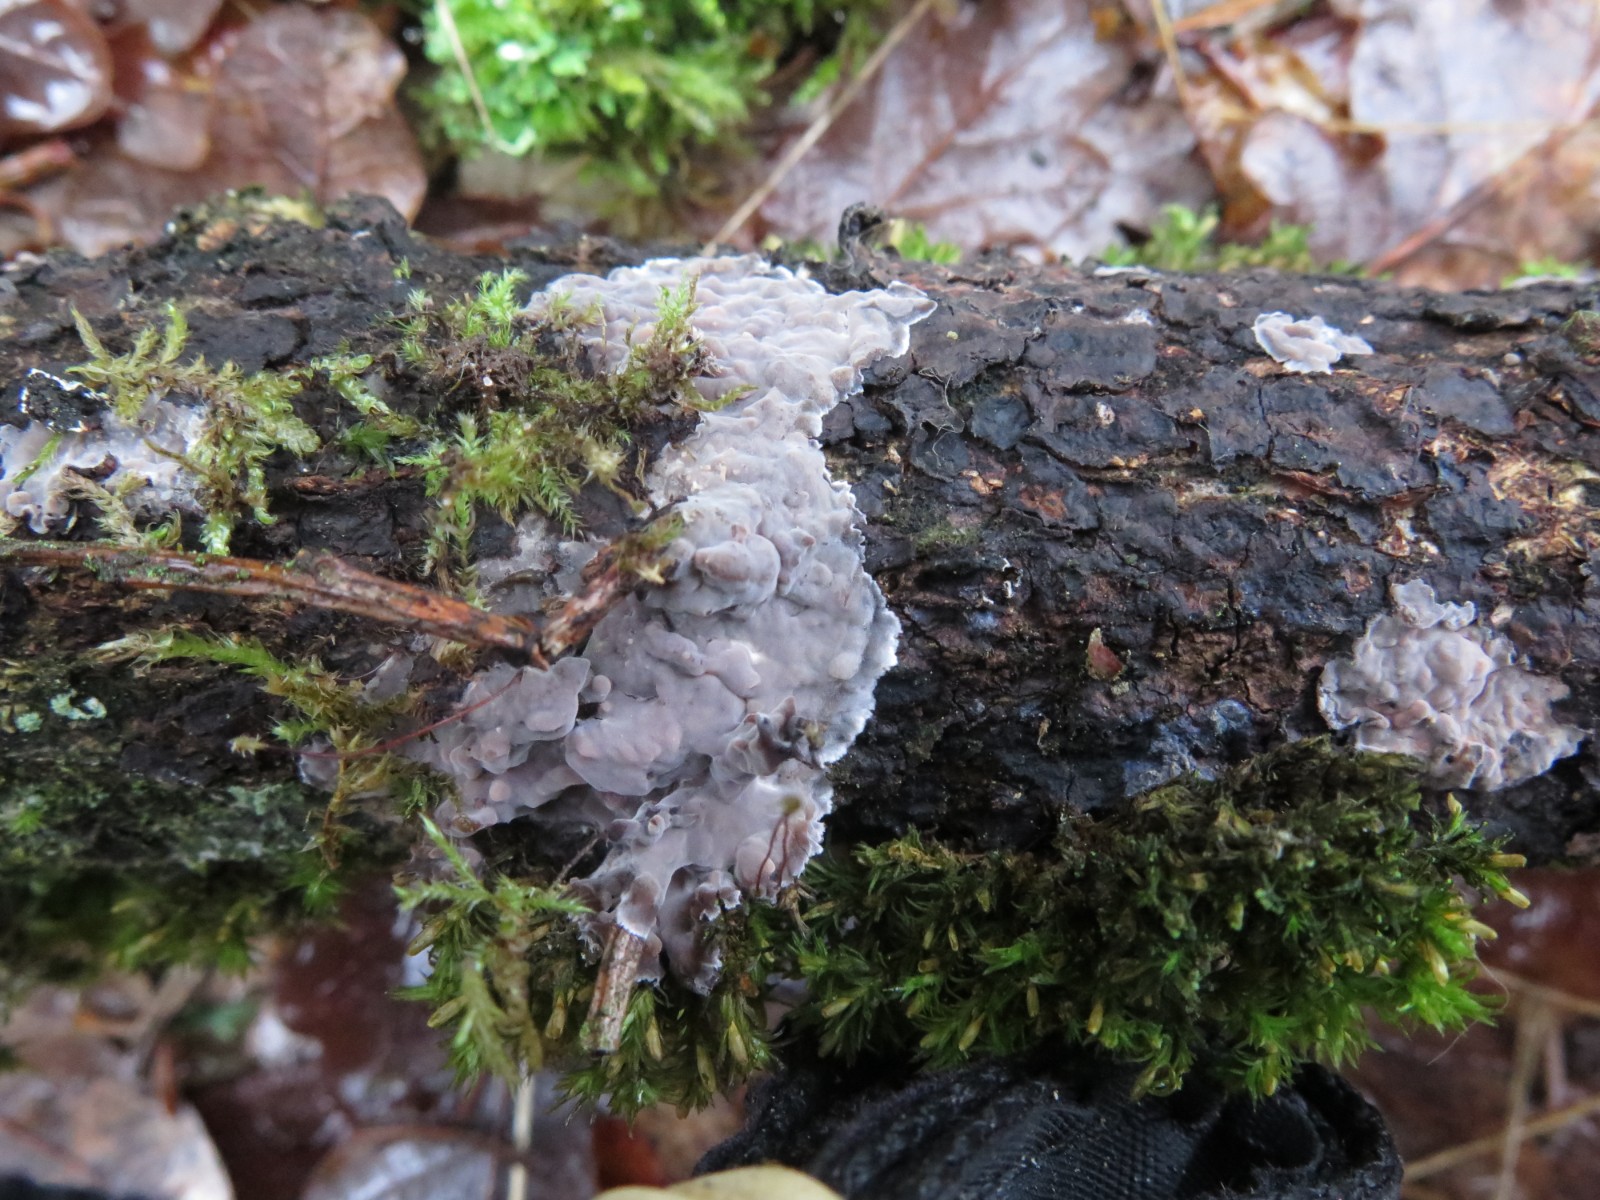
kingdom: Fungi
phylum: Basidiomycota
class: Agaricomycetes
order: Russulales
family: Peniophoraceae
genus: Peniophora
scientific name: Peniophora quercina
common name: ege-voksskind
